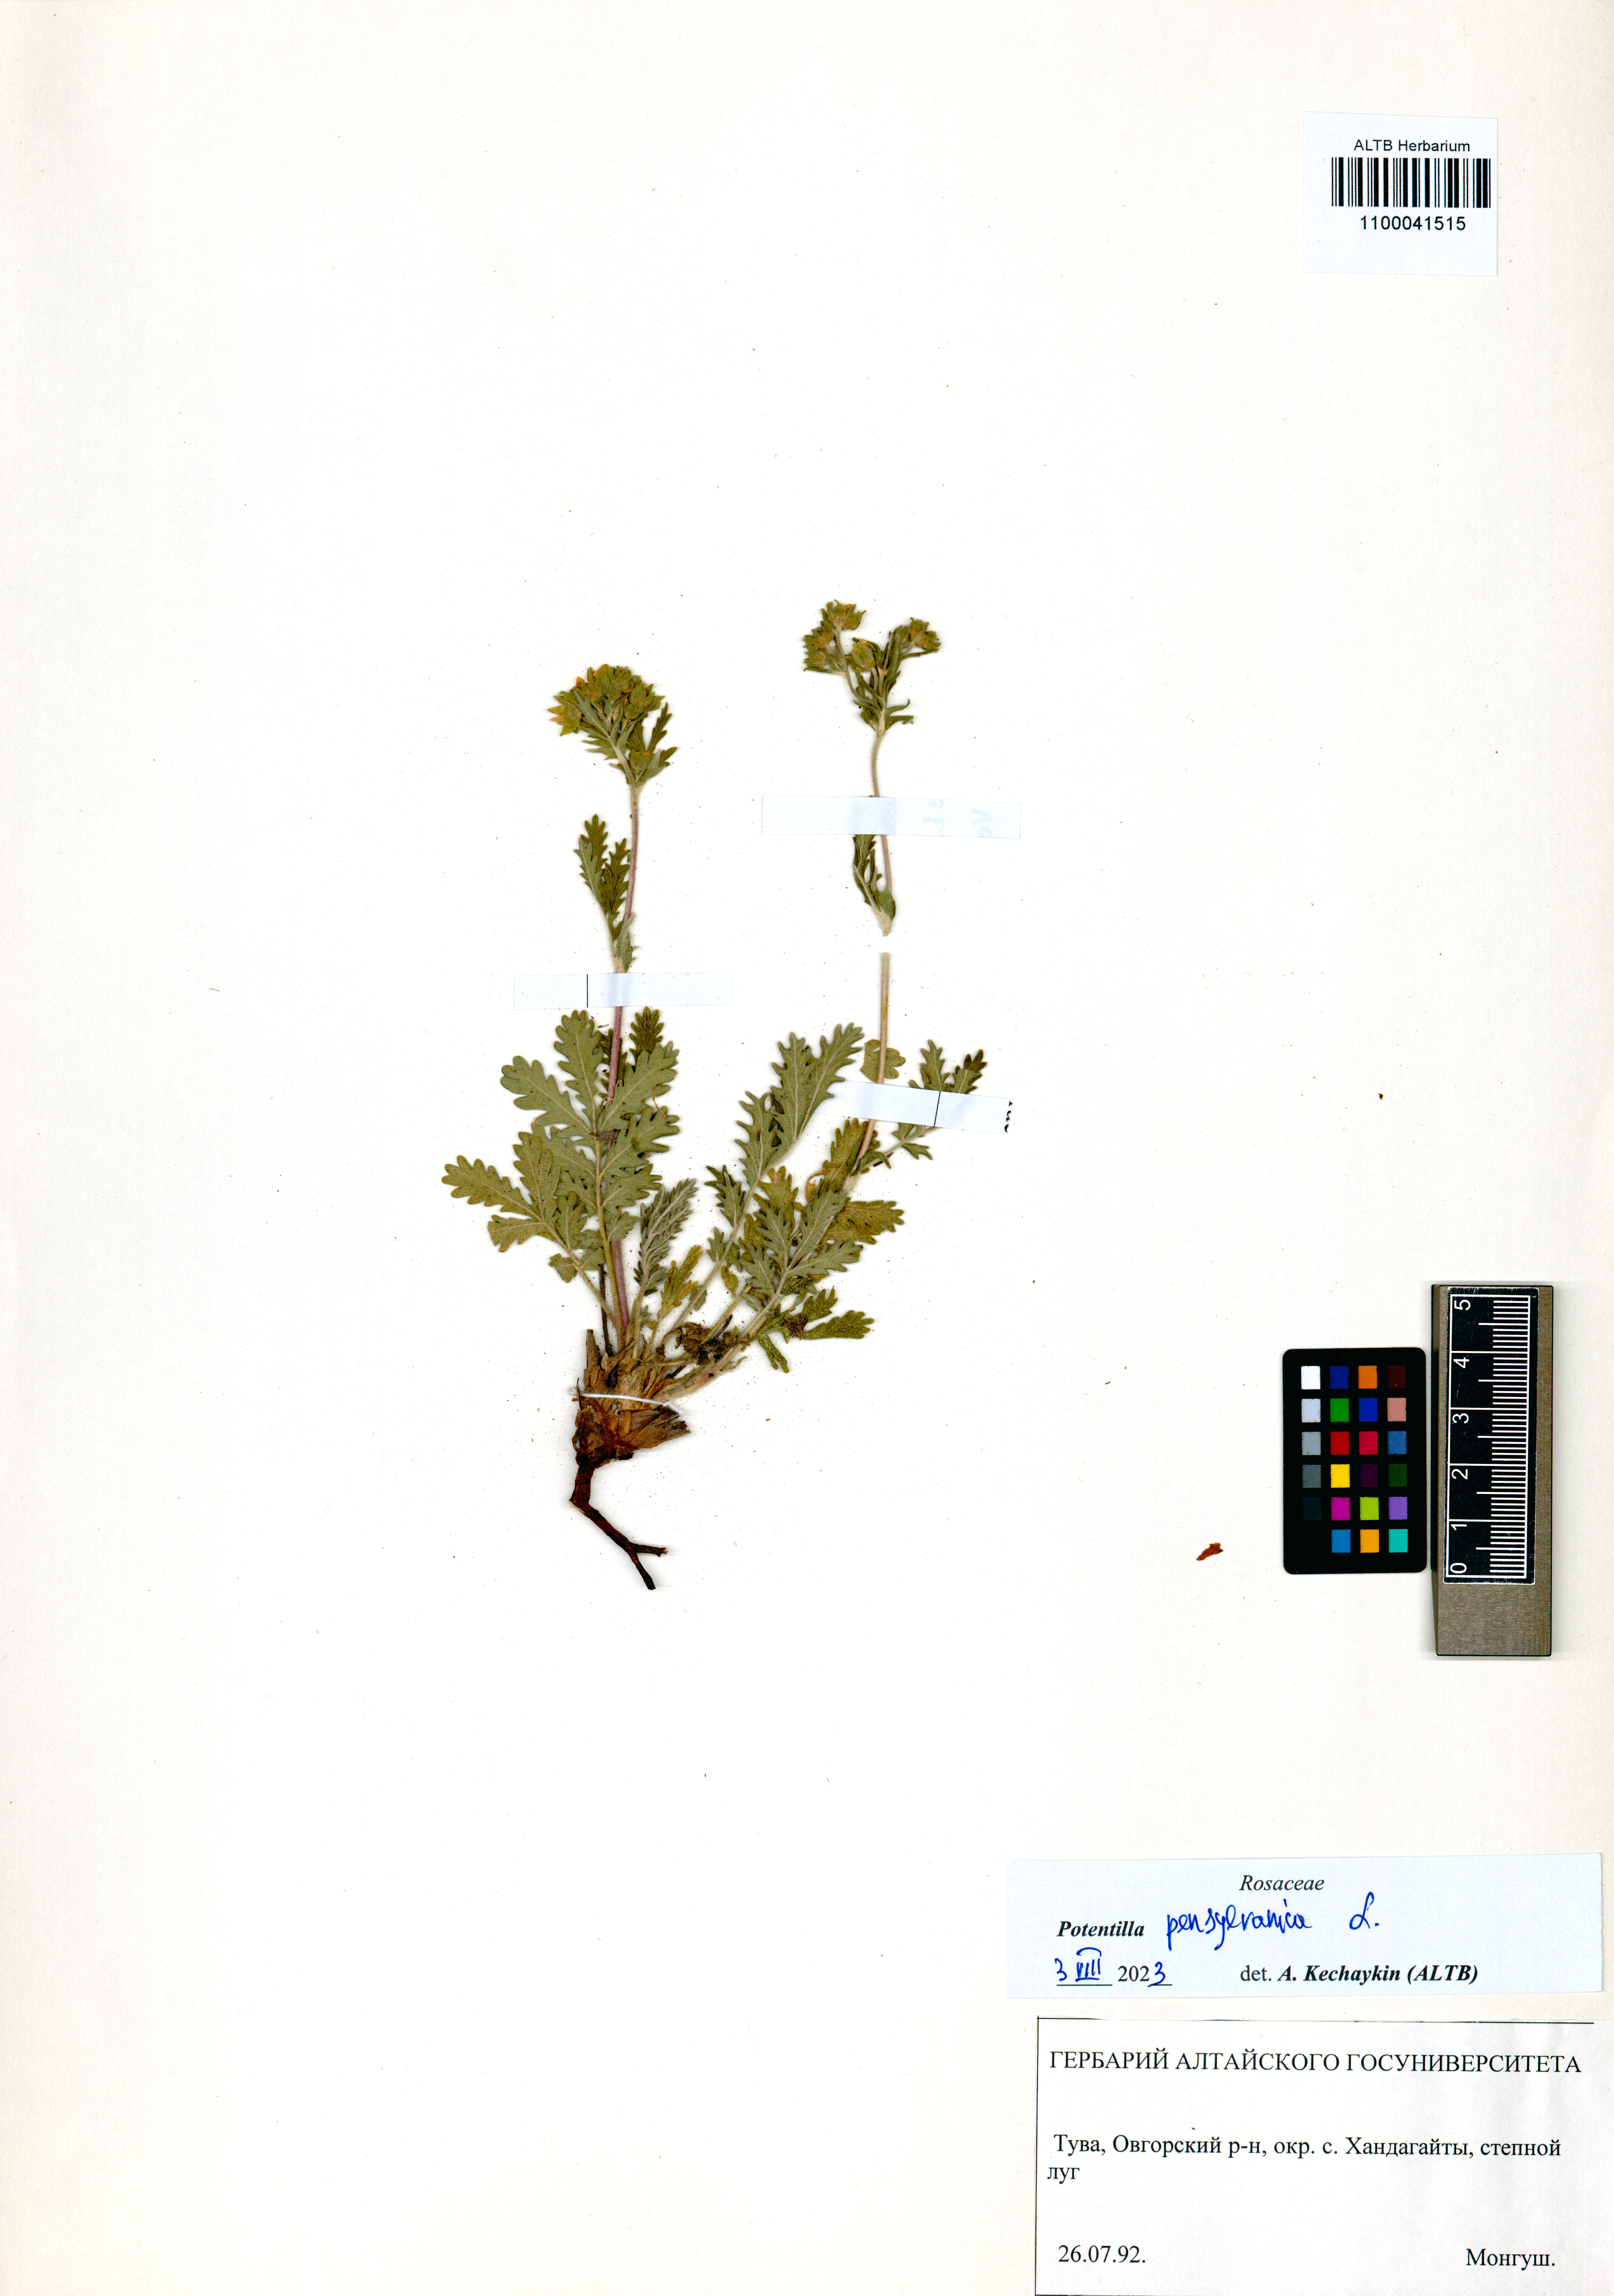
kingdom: Plantae
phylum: Tracheophyta
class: Magnoliopsida
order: Rosales
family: Rosaceae
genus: Potentilla
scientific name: Potentilla pensylvanica
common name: Pennsylvania cinquefoil
